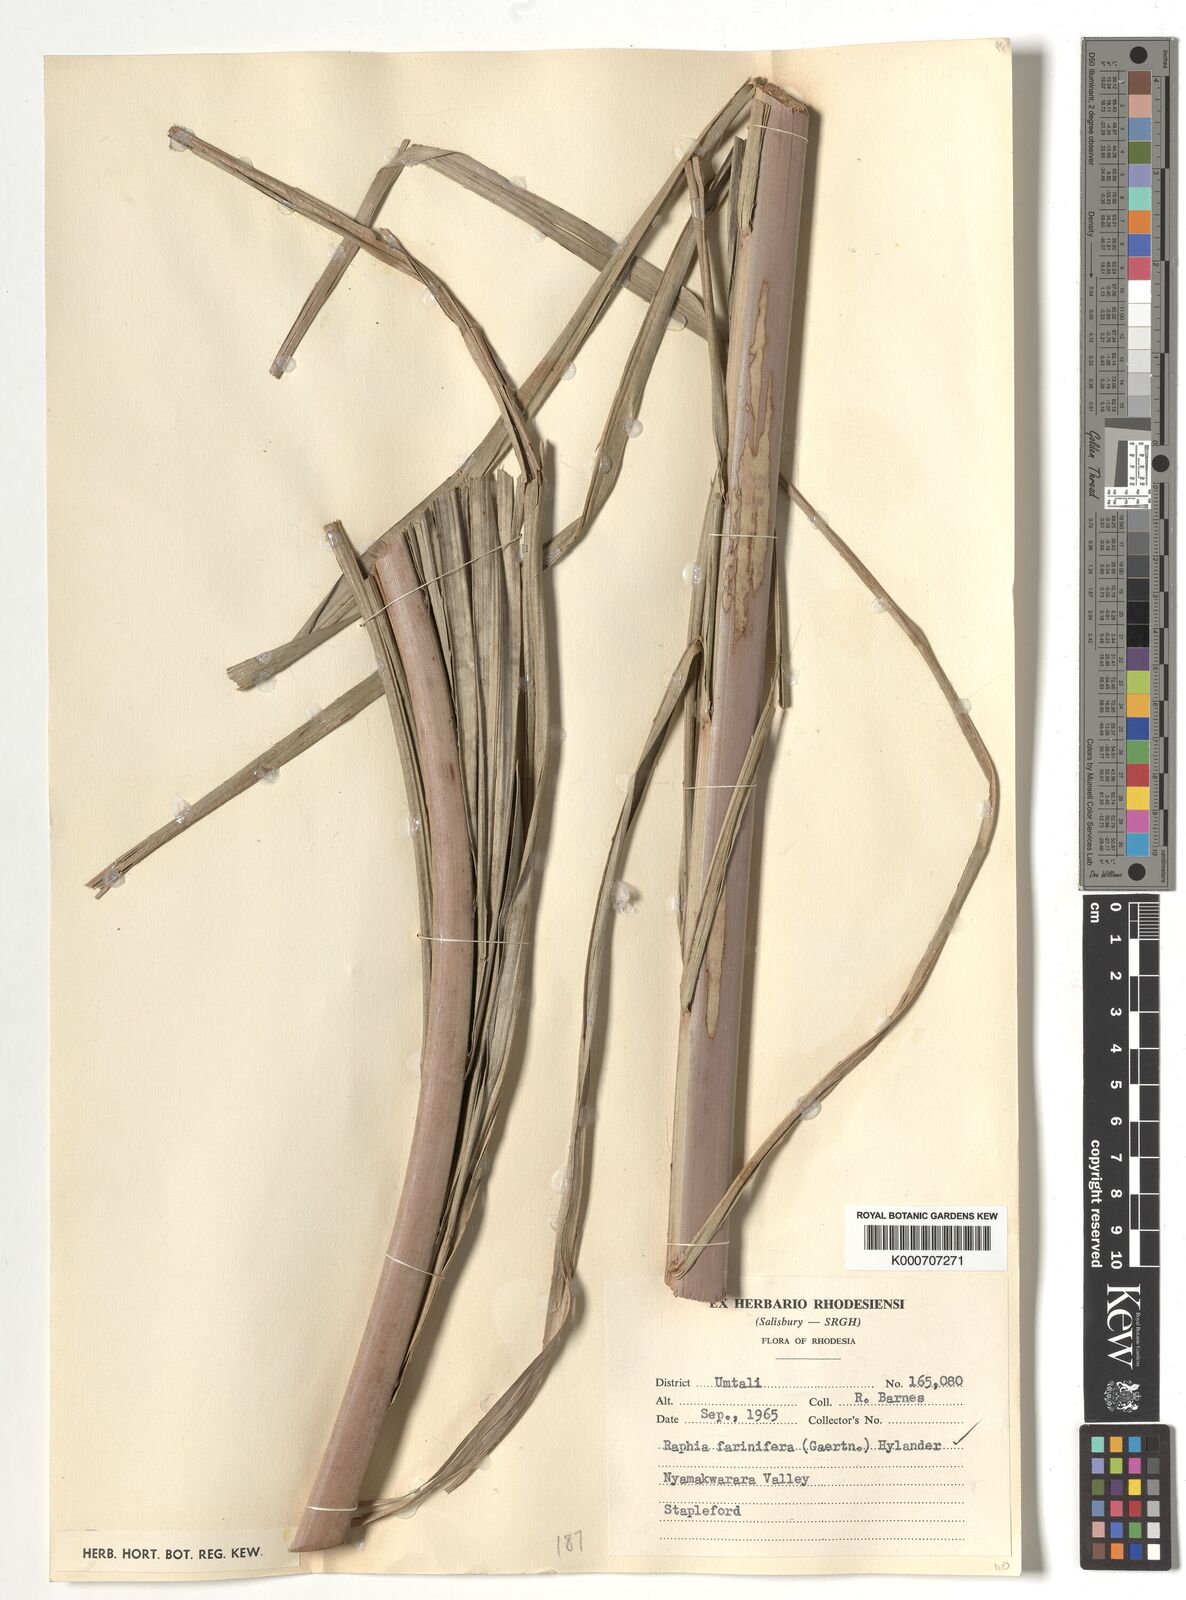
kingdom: Plantae
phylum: Tracheophyta
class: Liliopsida
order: Arecales
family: Arecaceae
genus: Raphia
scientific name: Raphia farinifera
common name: Raphia palm
